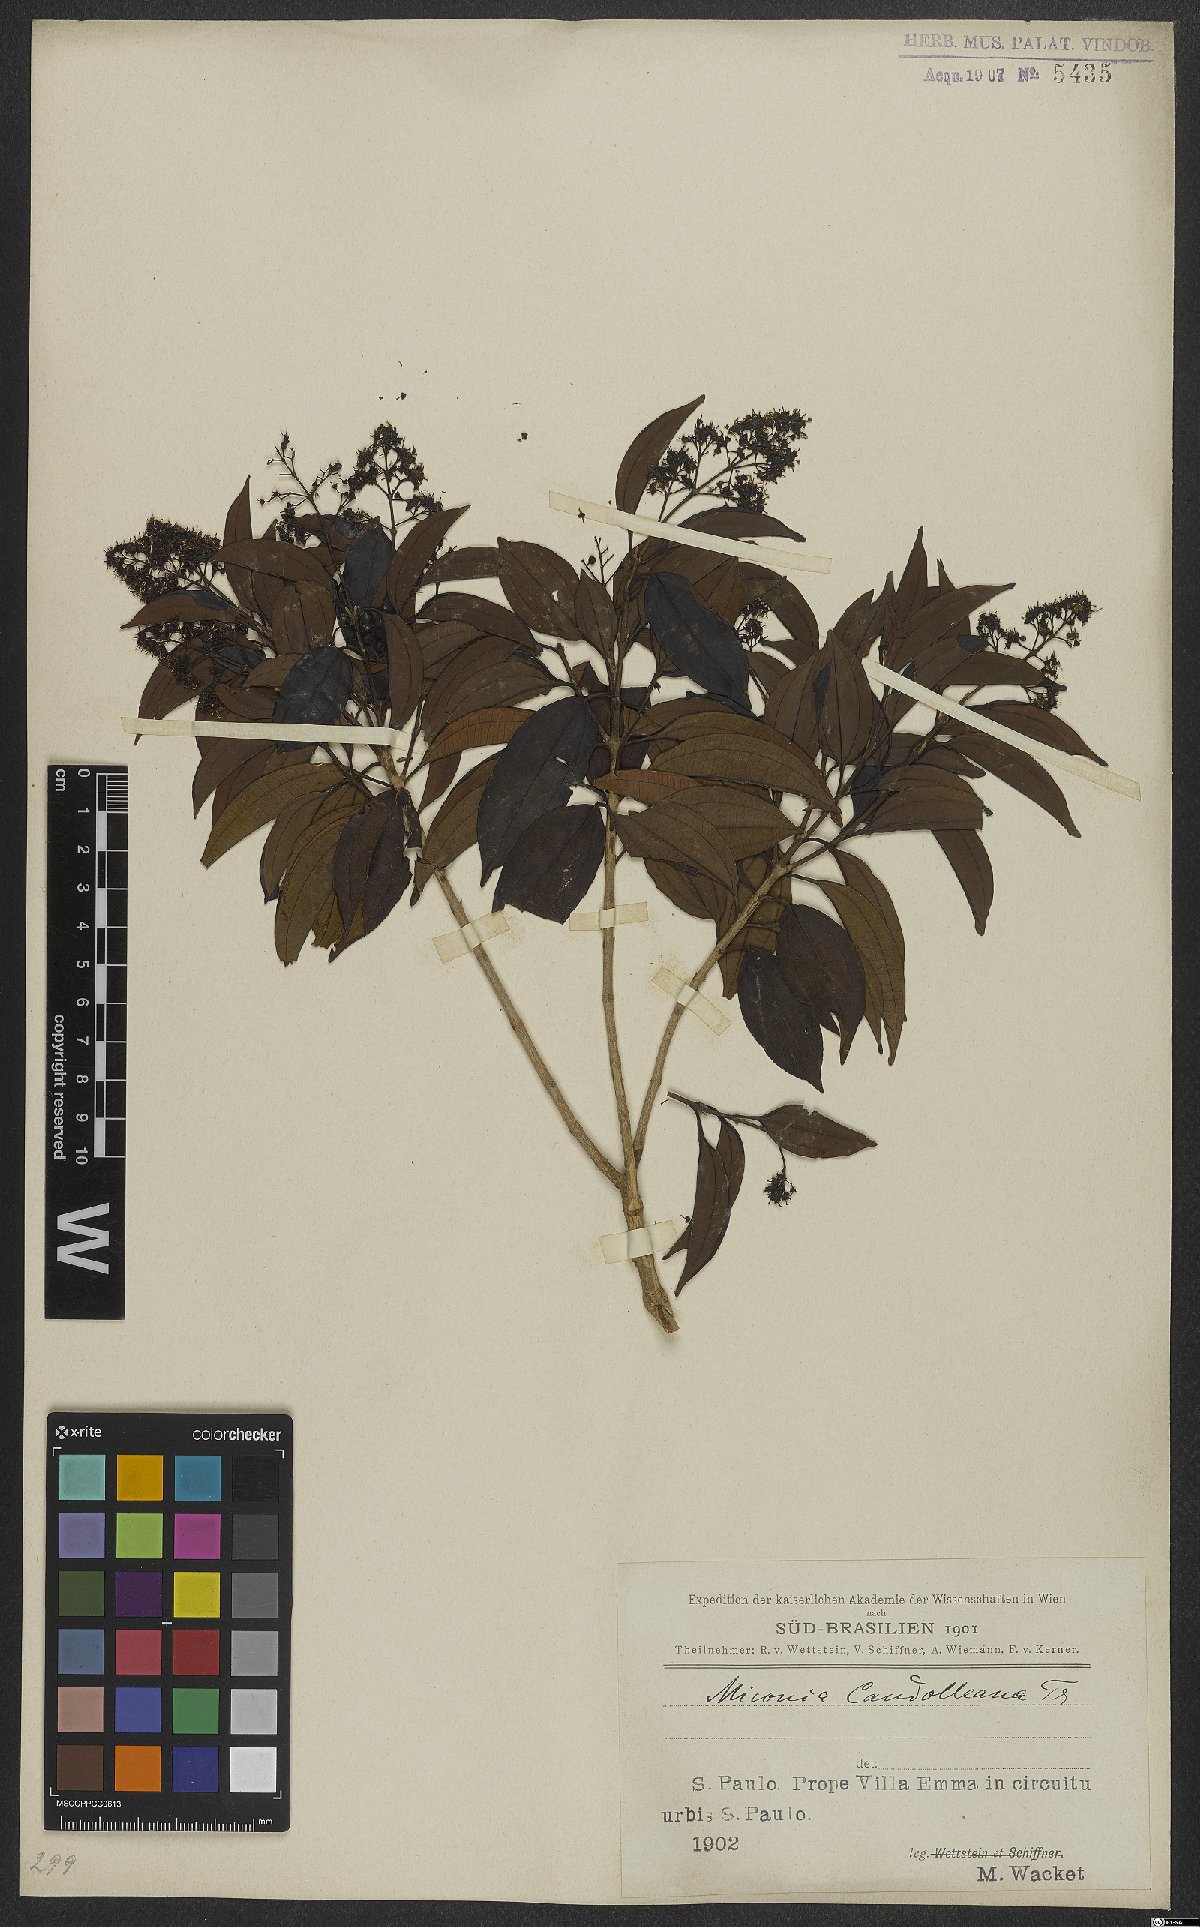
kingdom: Plantae
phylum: Tracheophyta
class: Magnoliopsida
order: Myrtales
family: Melastomataceae
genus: Miconia
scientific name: Miconia cinnamomifolia
